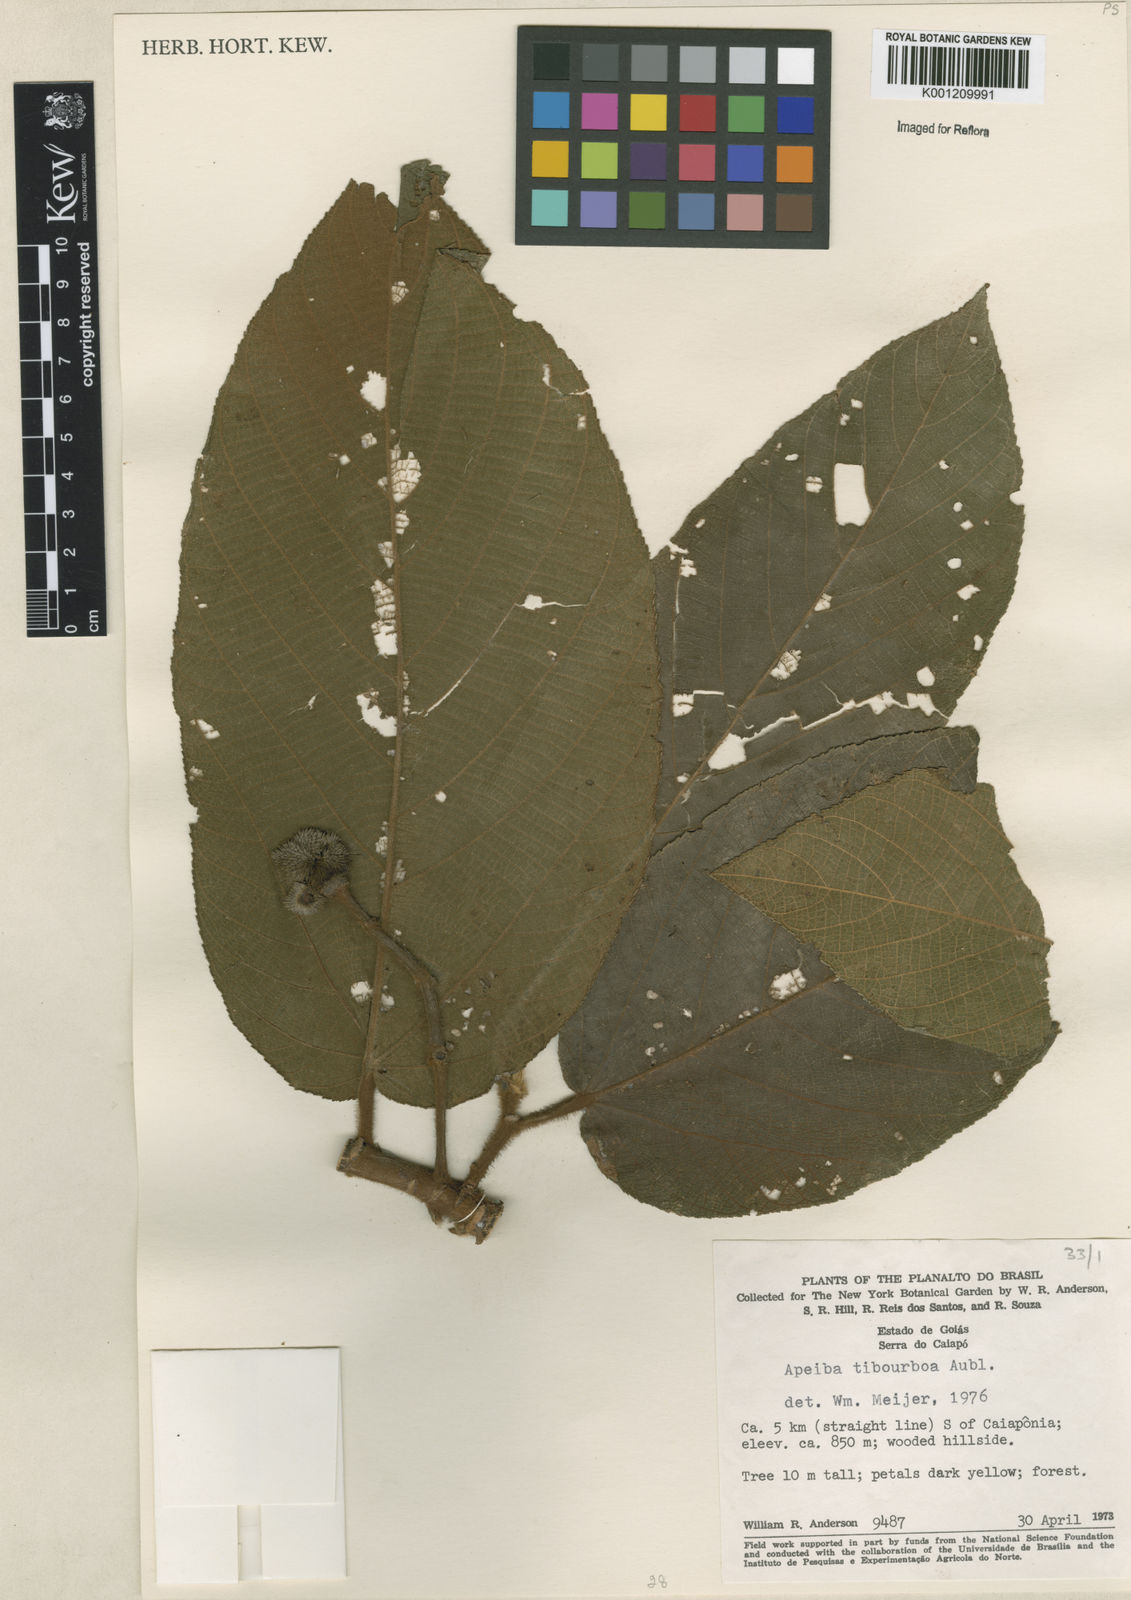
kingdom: Plantae
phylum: Tracheophyta
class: Magnoliopsida
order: Malvales
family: Malvaceae
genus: Apeiba
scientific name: Apeiba tibourbou
